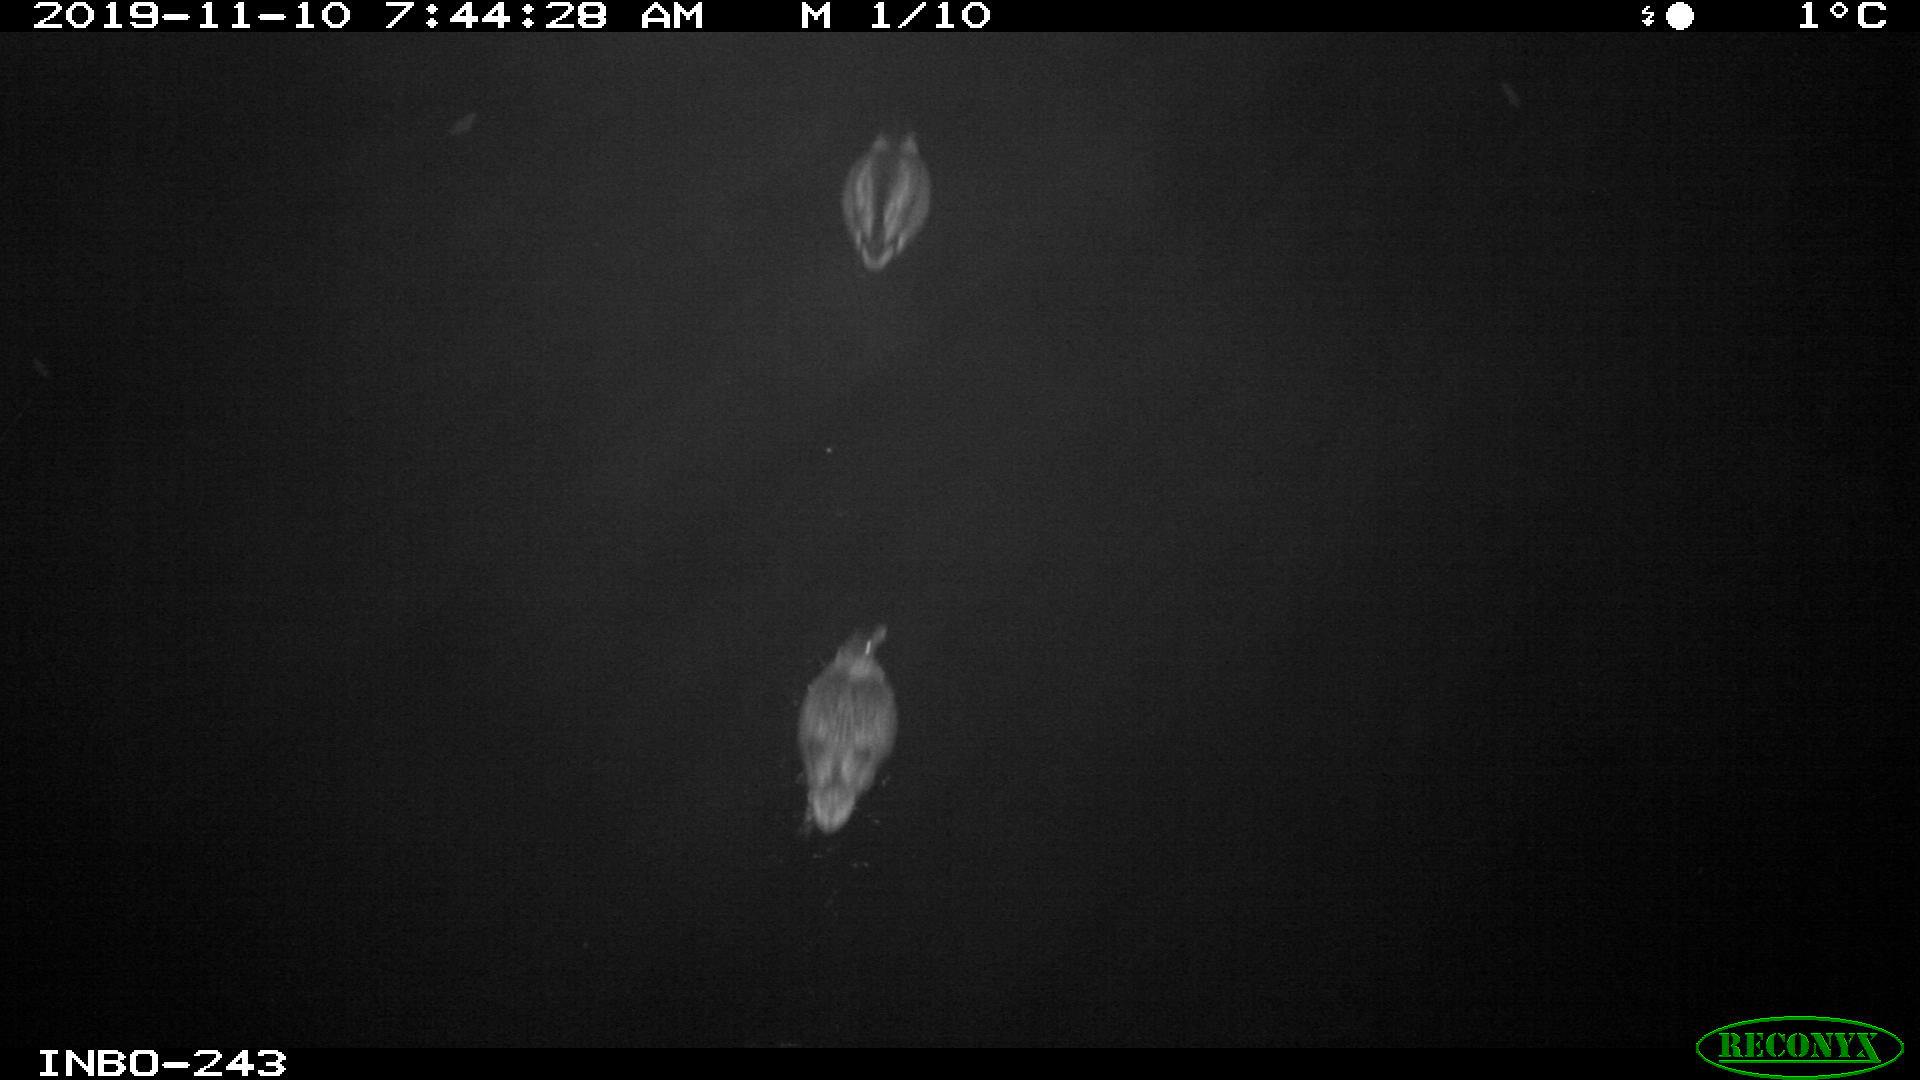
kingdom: Animalia
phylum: Chordata
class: Aves
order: Anseriformes
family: Anatidae
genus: Anas
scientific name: Anas platyrhynchos
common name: Mallard
